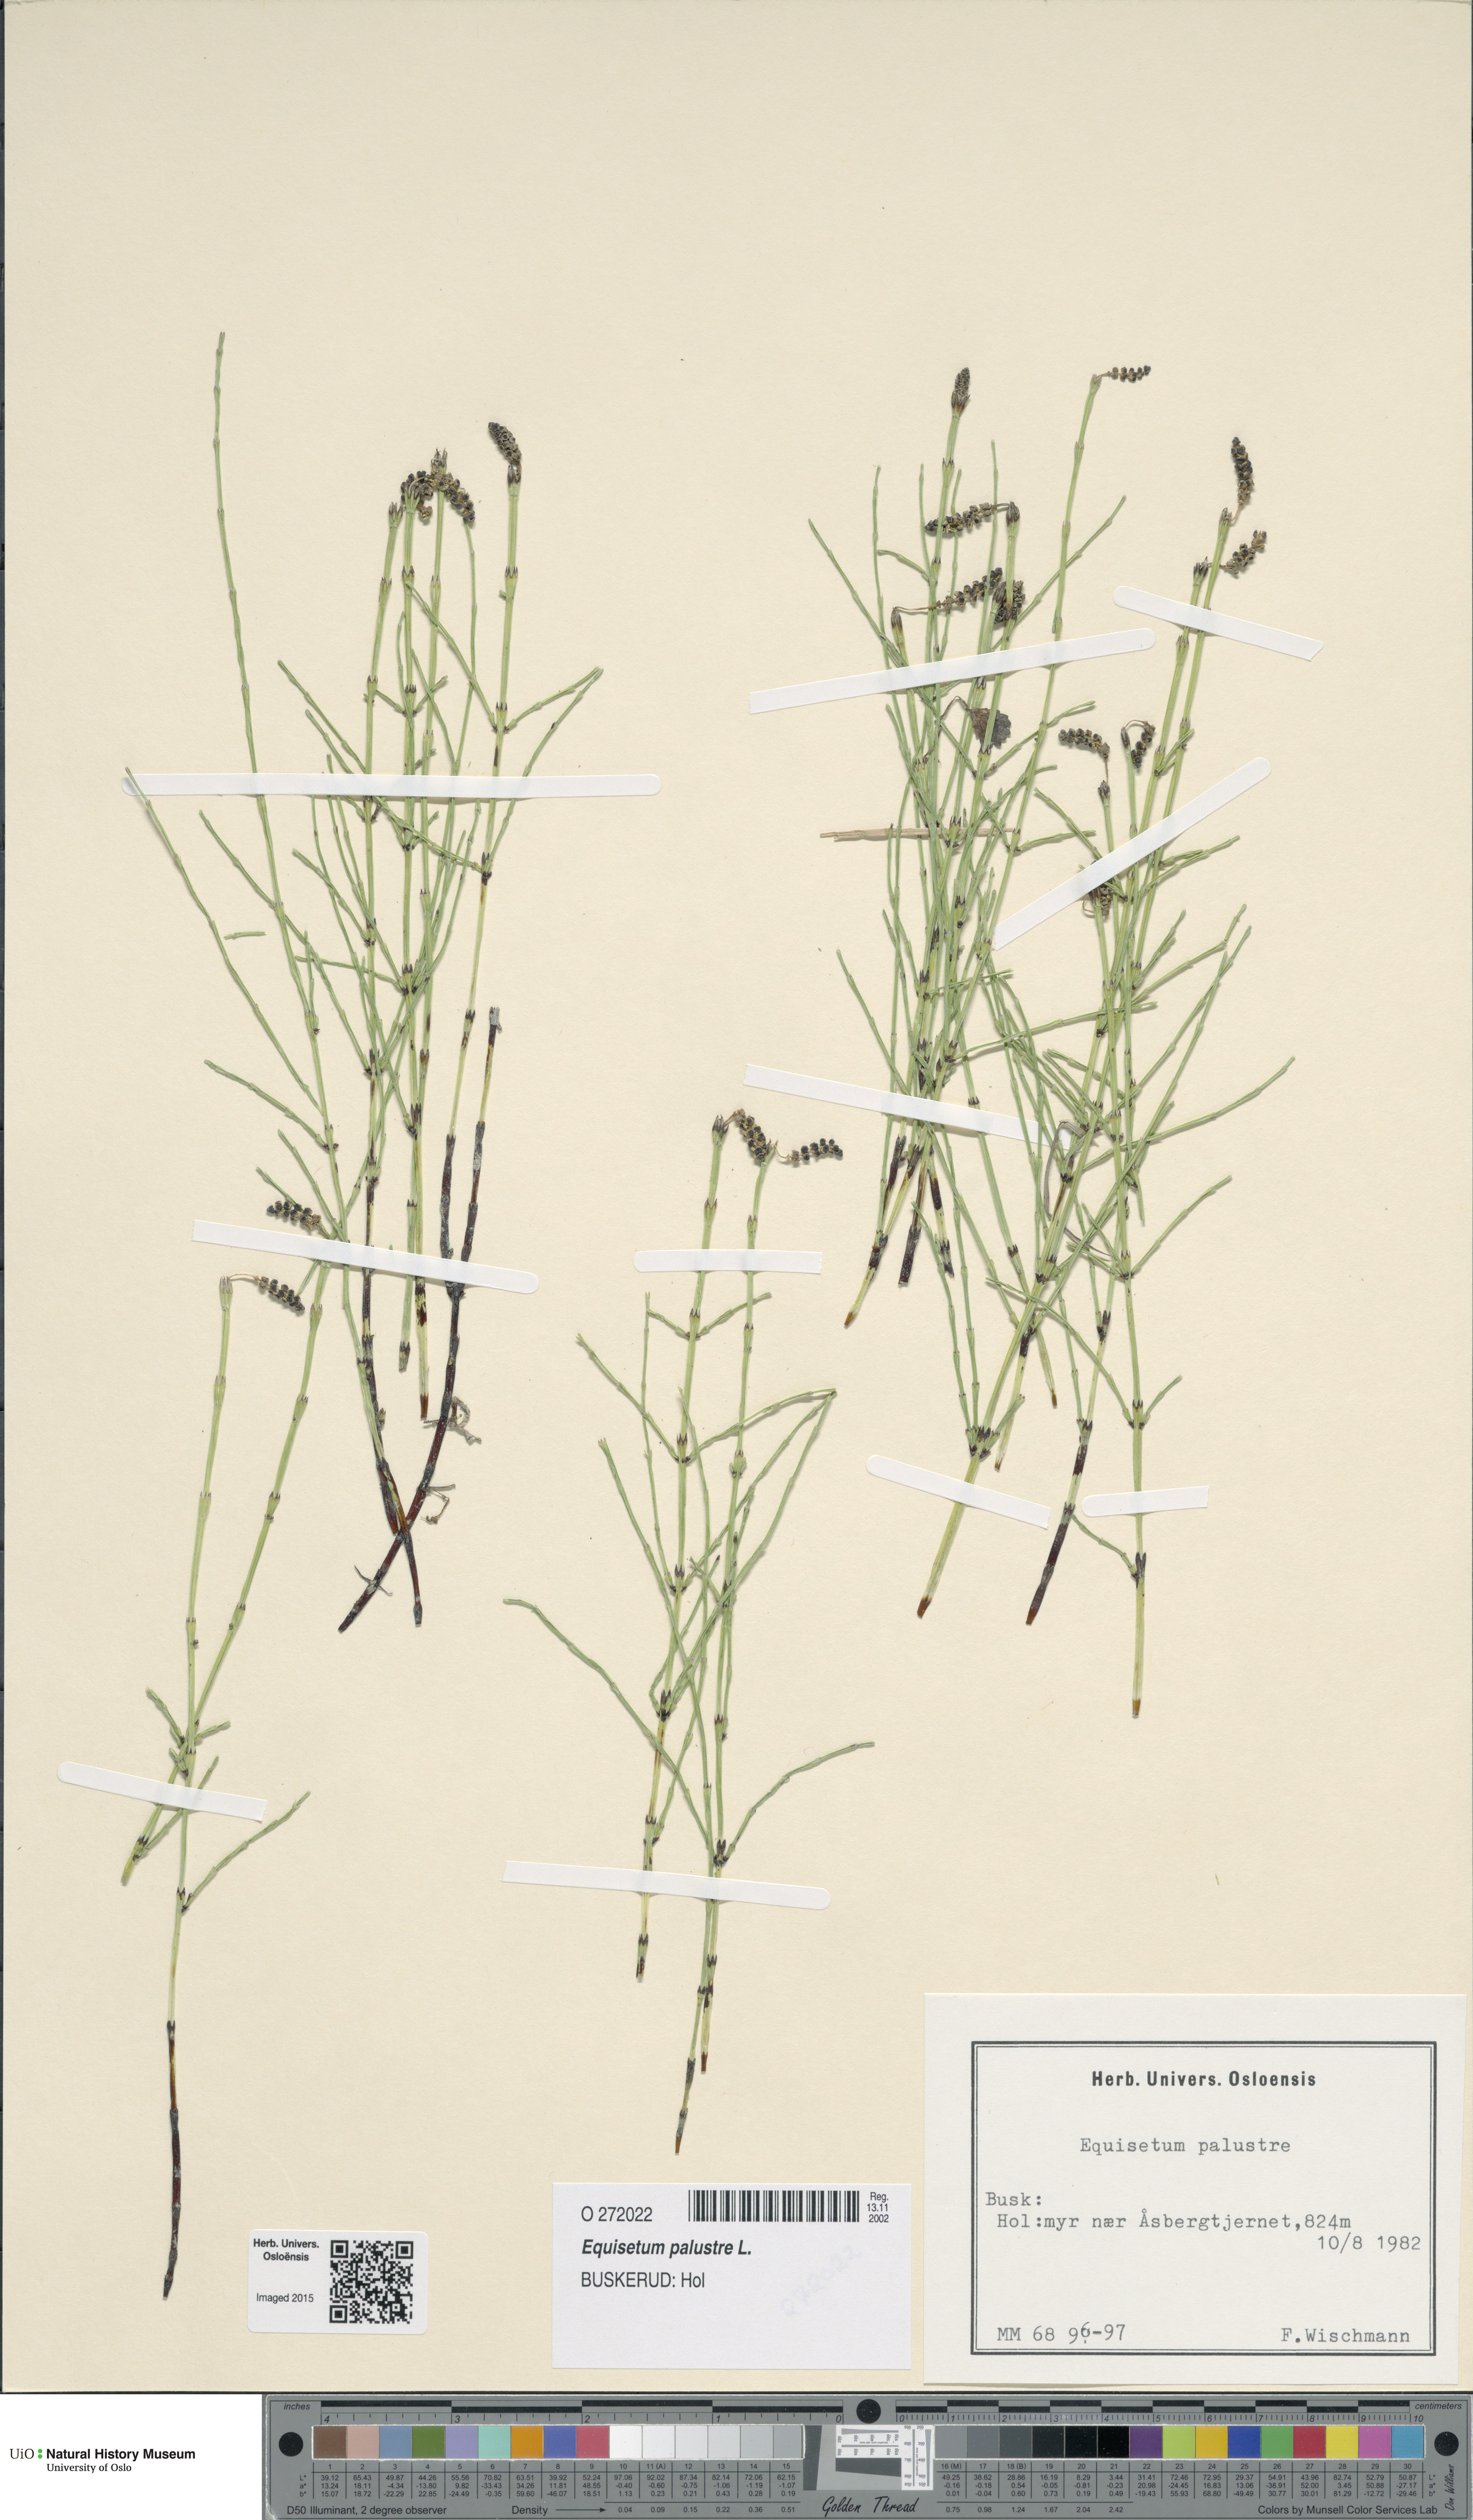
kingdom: Plantae
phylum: Tracheophyta
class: Polypodiopsida
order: Equisetales
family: Equisetaceae
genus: Equisetum
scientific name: Equisetum palustre
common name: Marsh horsetail
